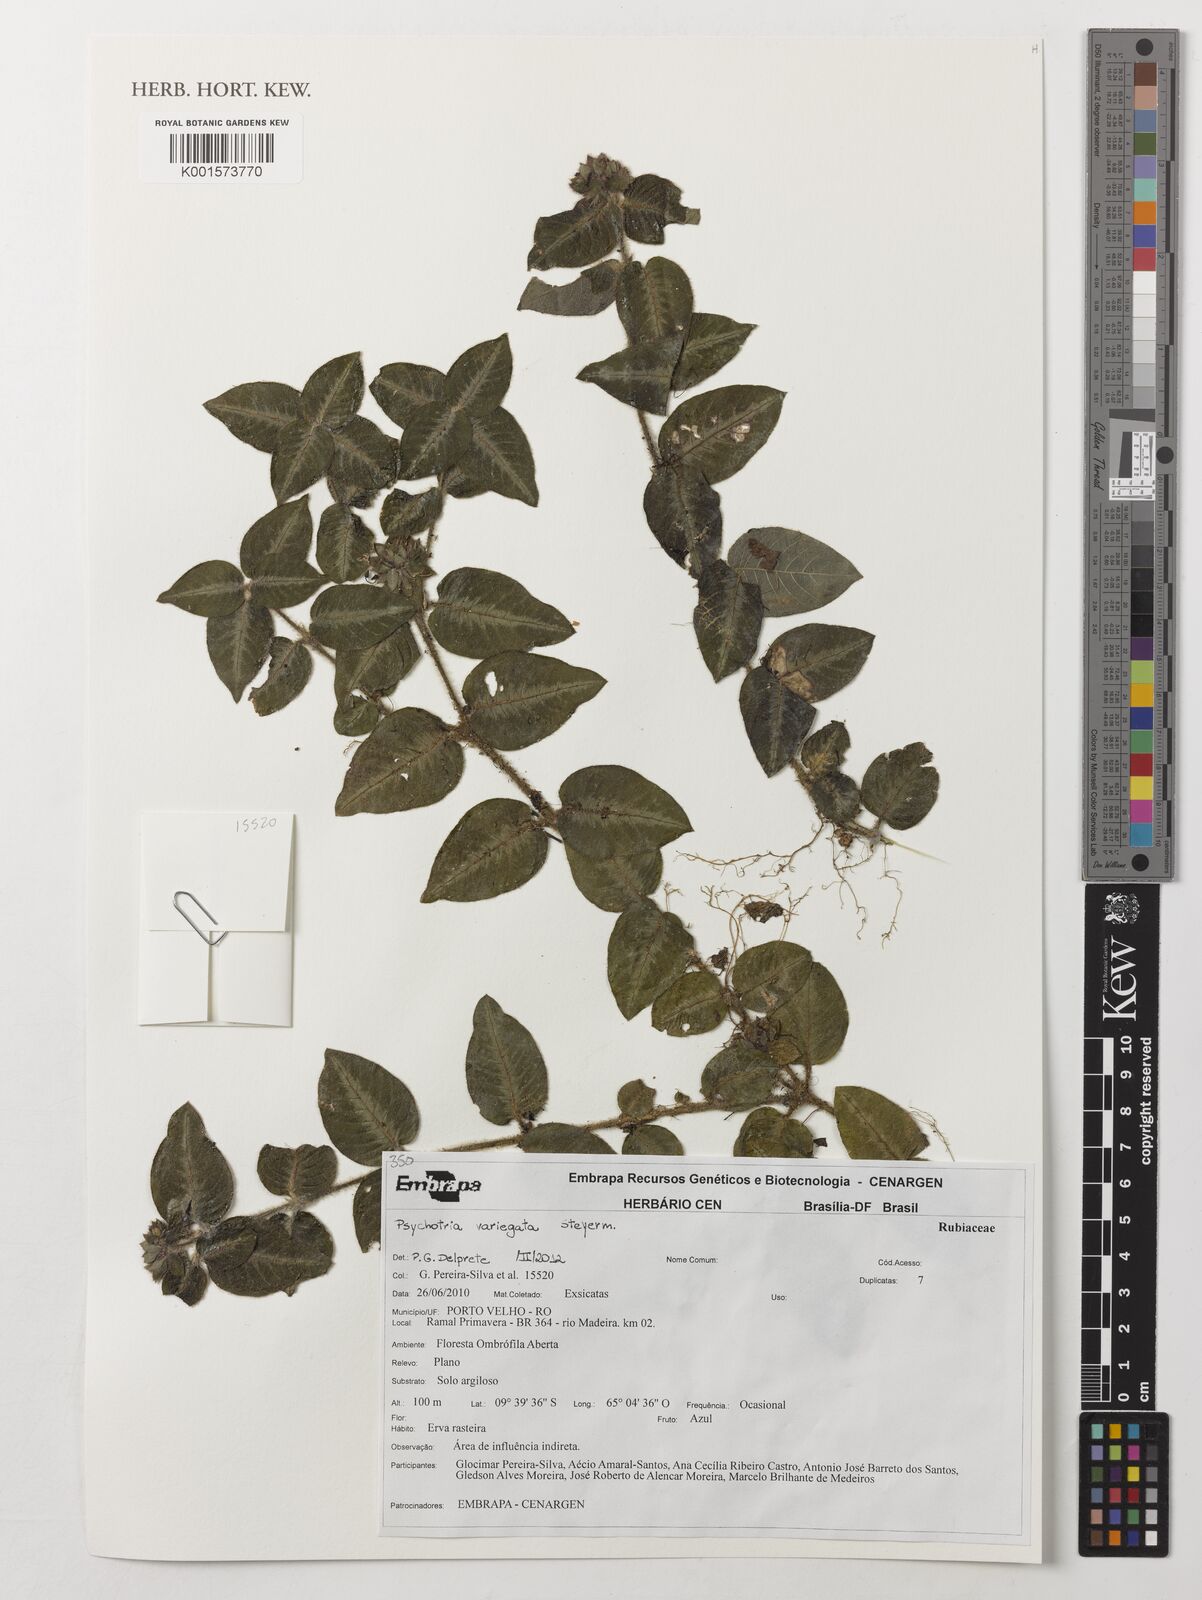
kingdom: Plantae
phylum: Tracheophyta
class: Magnoliopsida
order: Gentianales
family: Rubiaceae
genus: Palicourea
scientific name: Palicourea debilis
